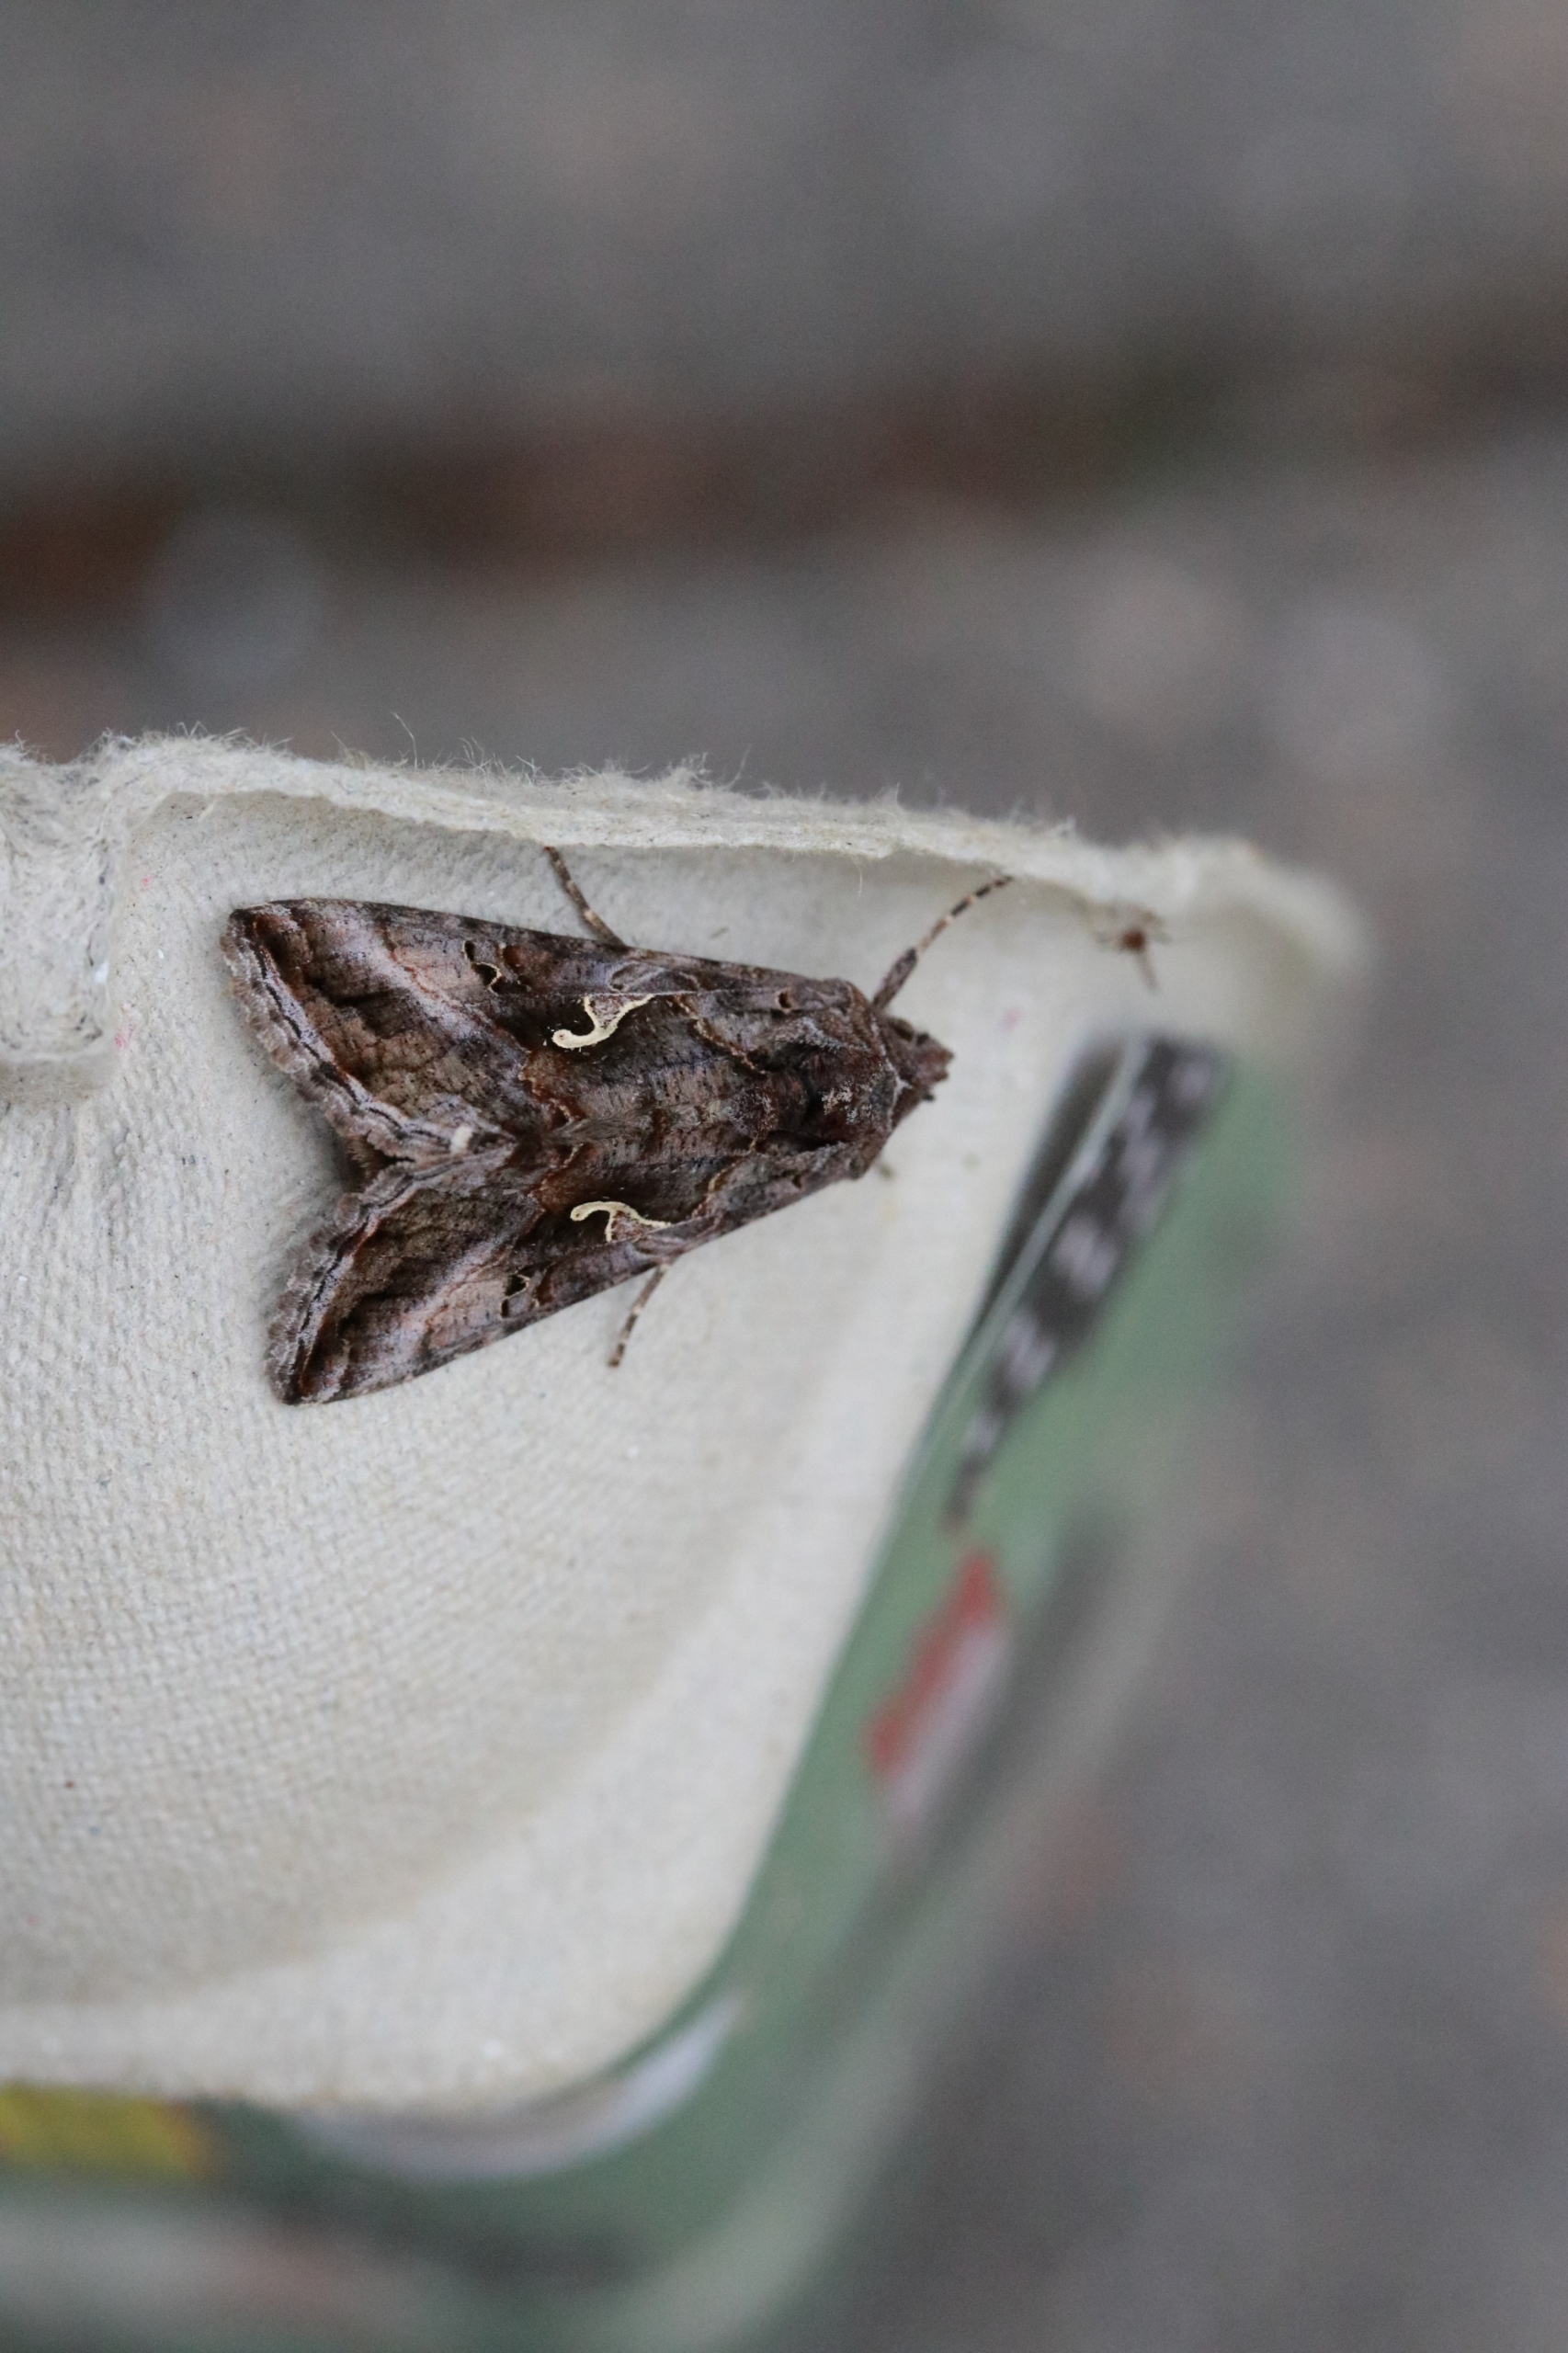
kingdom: Animalia
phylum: Arthropoda
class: Insecta
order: Lepidoptera
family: Noctuidae
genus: Autographa
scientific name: Autographa gamma
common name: Gammaugle
